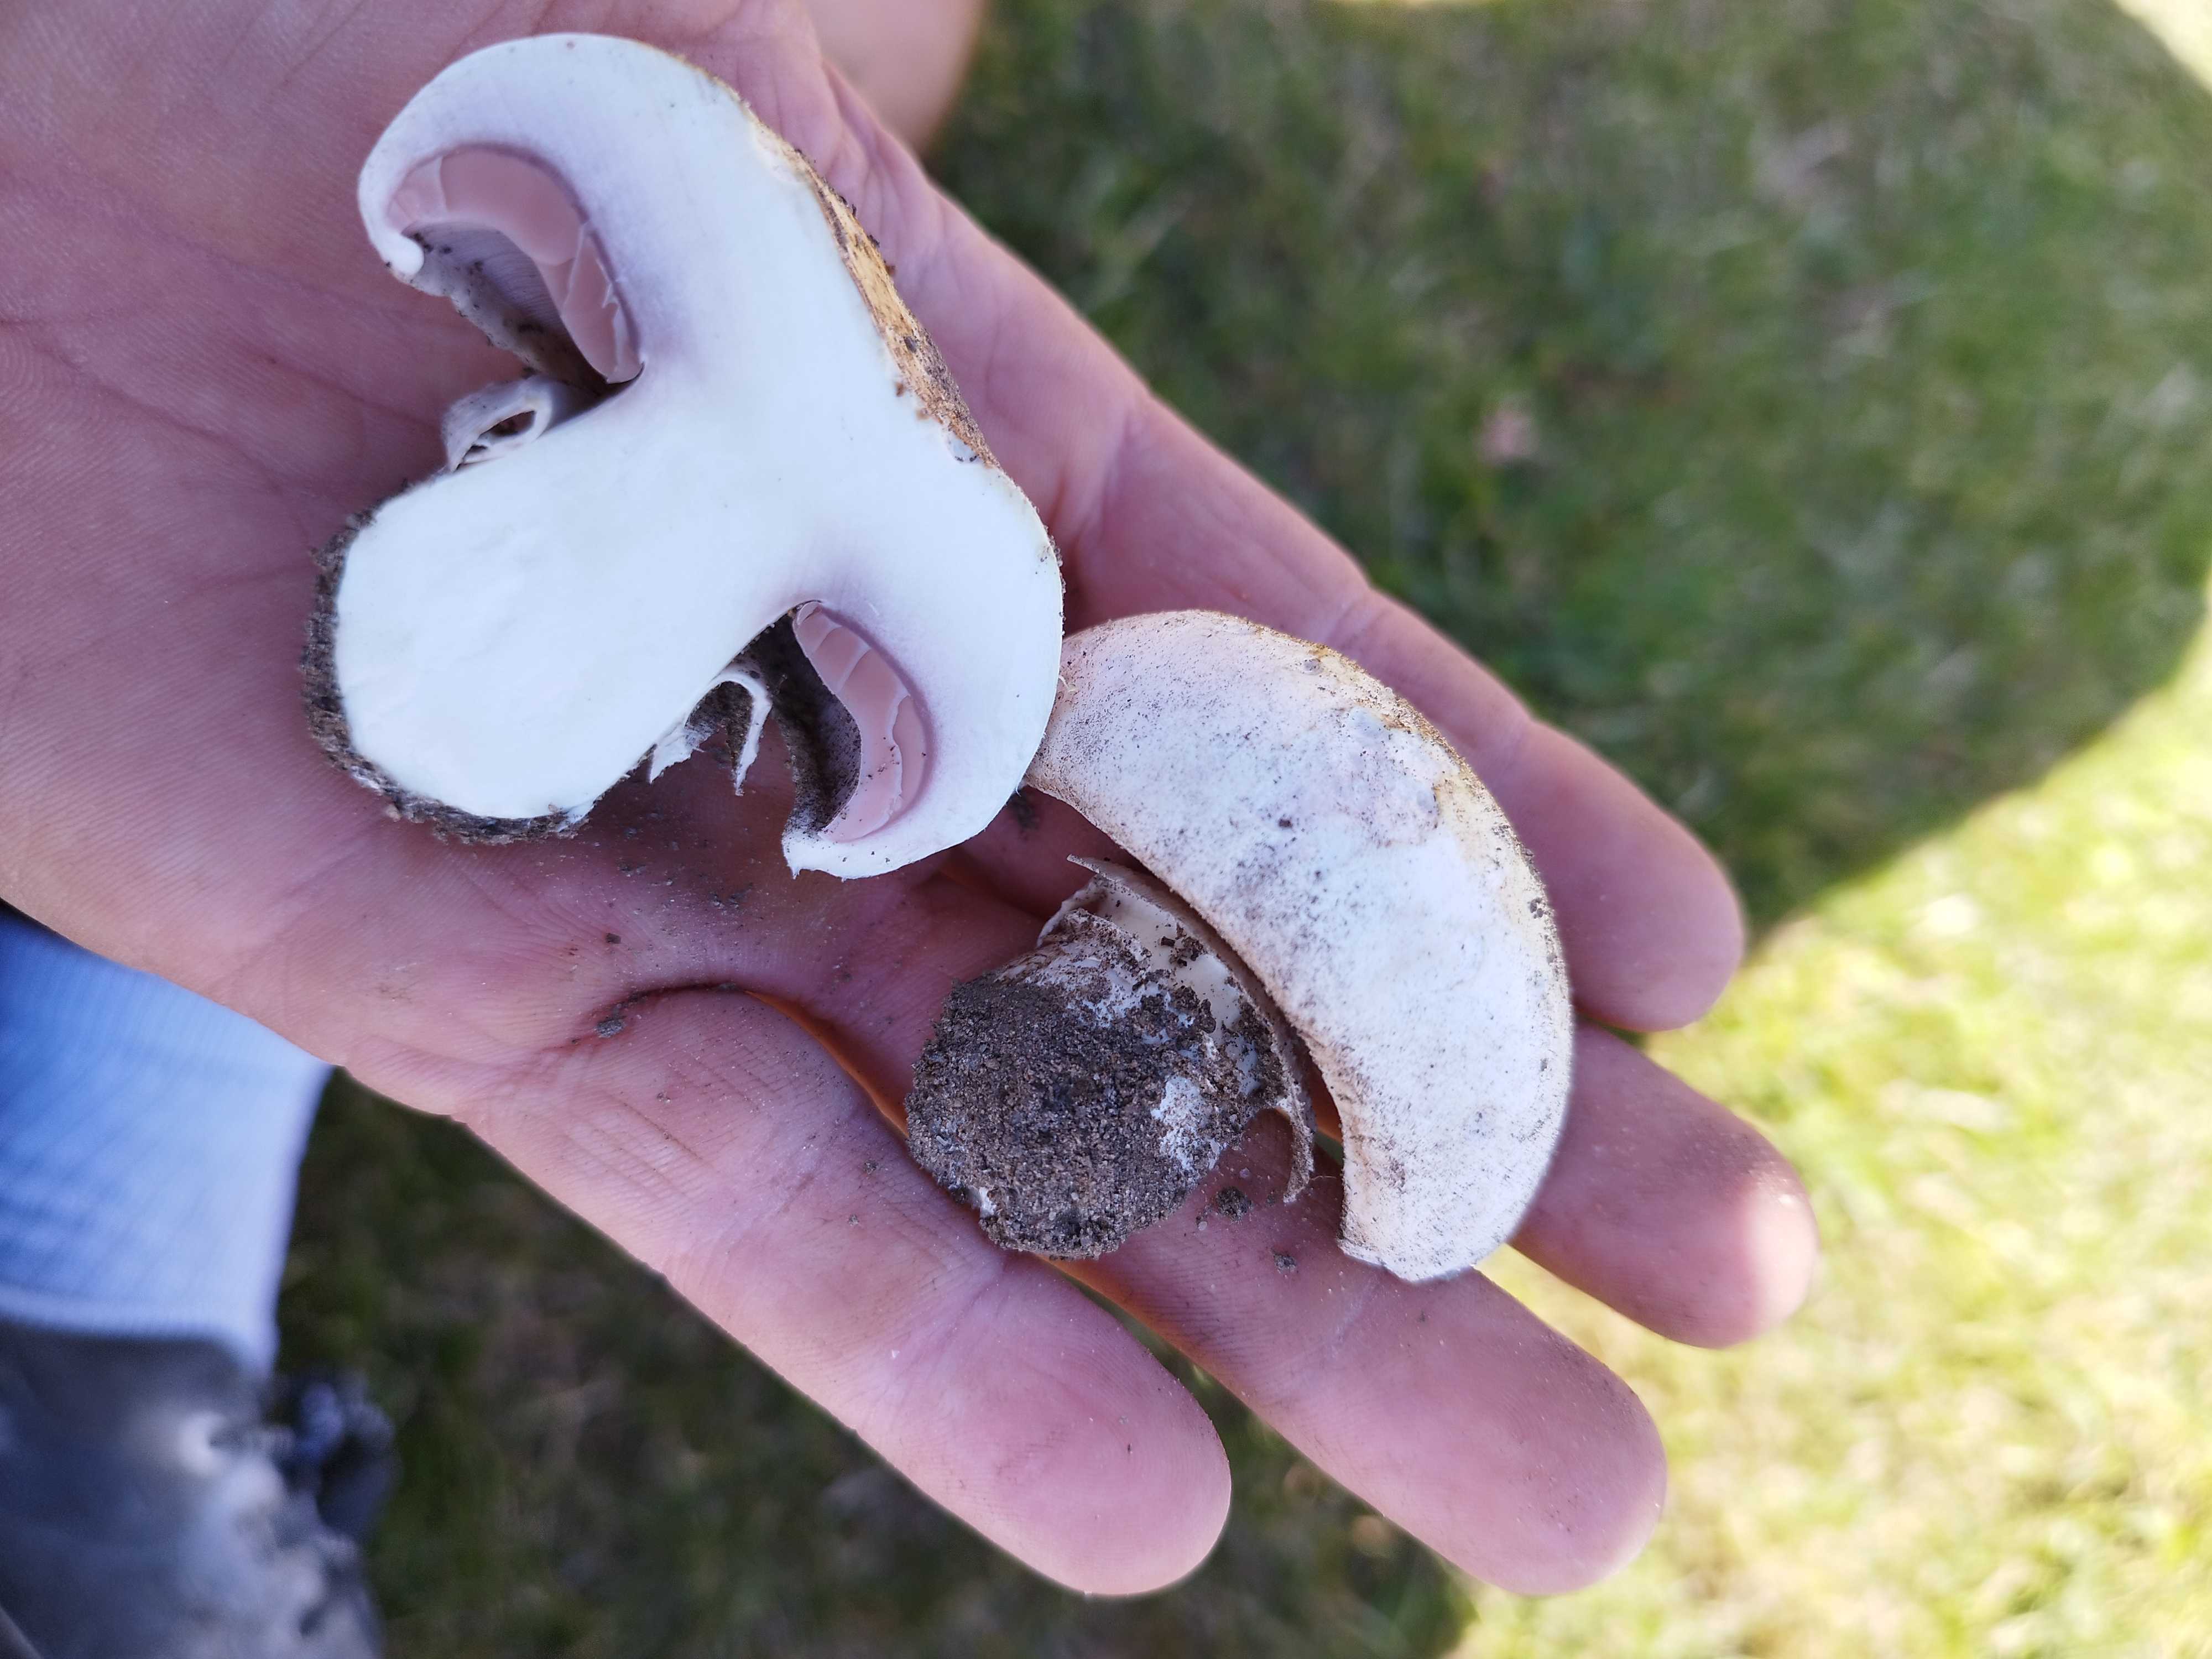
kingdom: Fungi
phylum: Basidiomycota
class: Agaricomycetes
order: Agaricales
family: Agaricaceae
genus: Agaricus
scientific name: Agaricus
